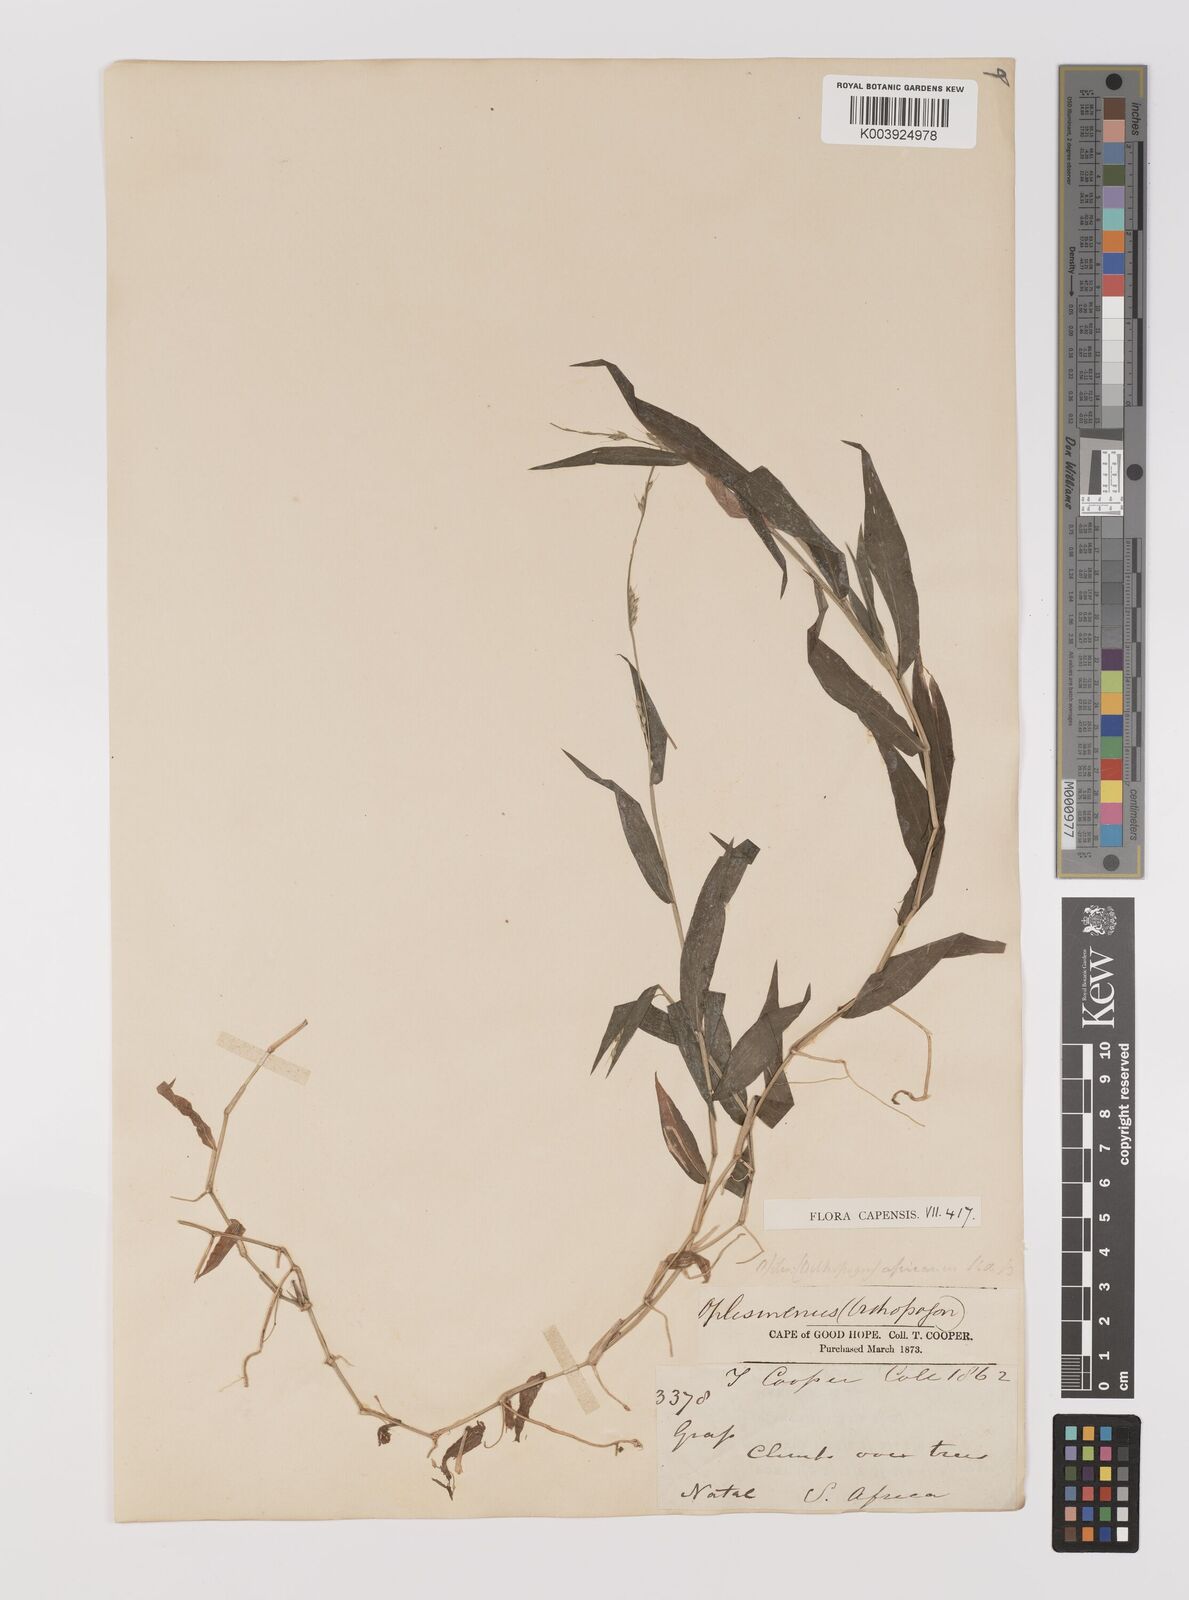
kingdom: Plantae
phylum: Tracheophyta
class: Liliopsida
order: Poales
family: Poaceae
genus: Oplismenus
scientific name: Oplismenus hirtellus
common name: Basketgrass
